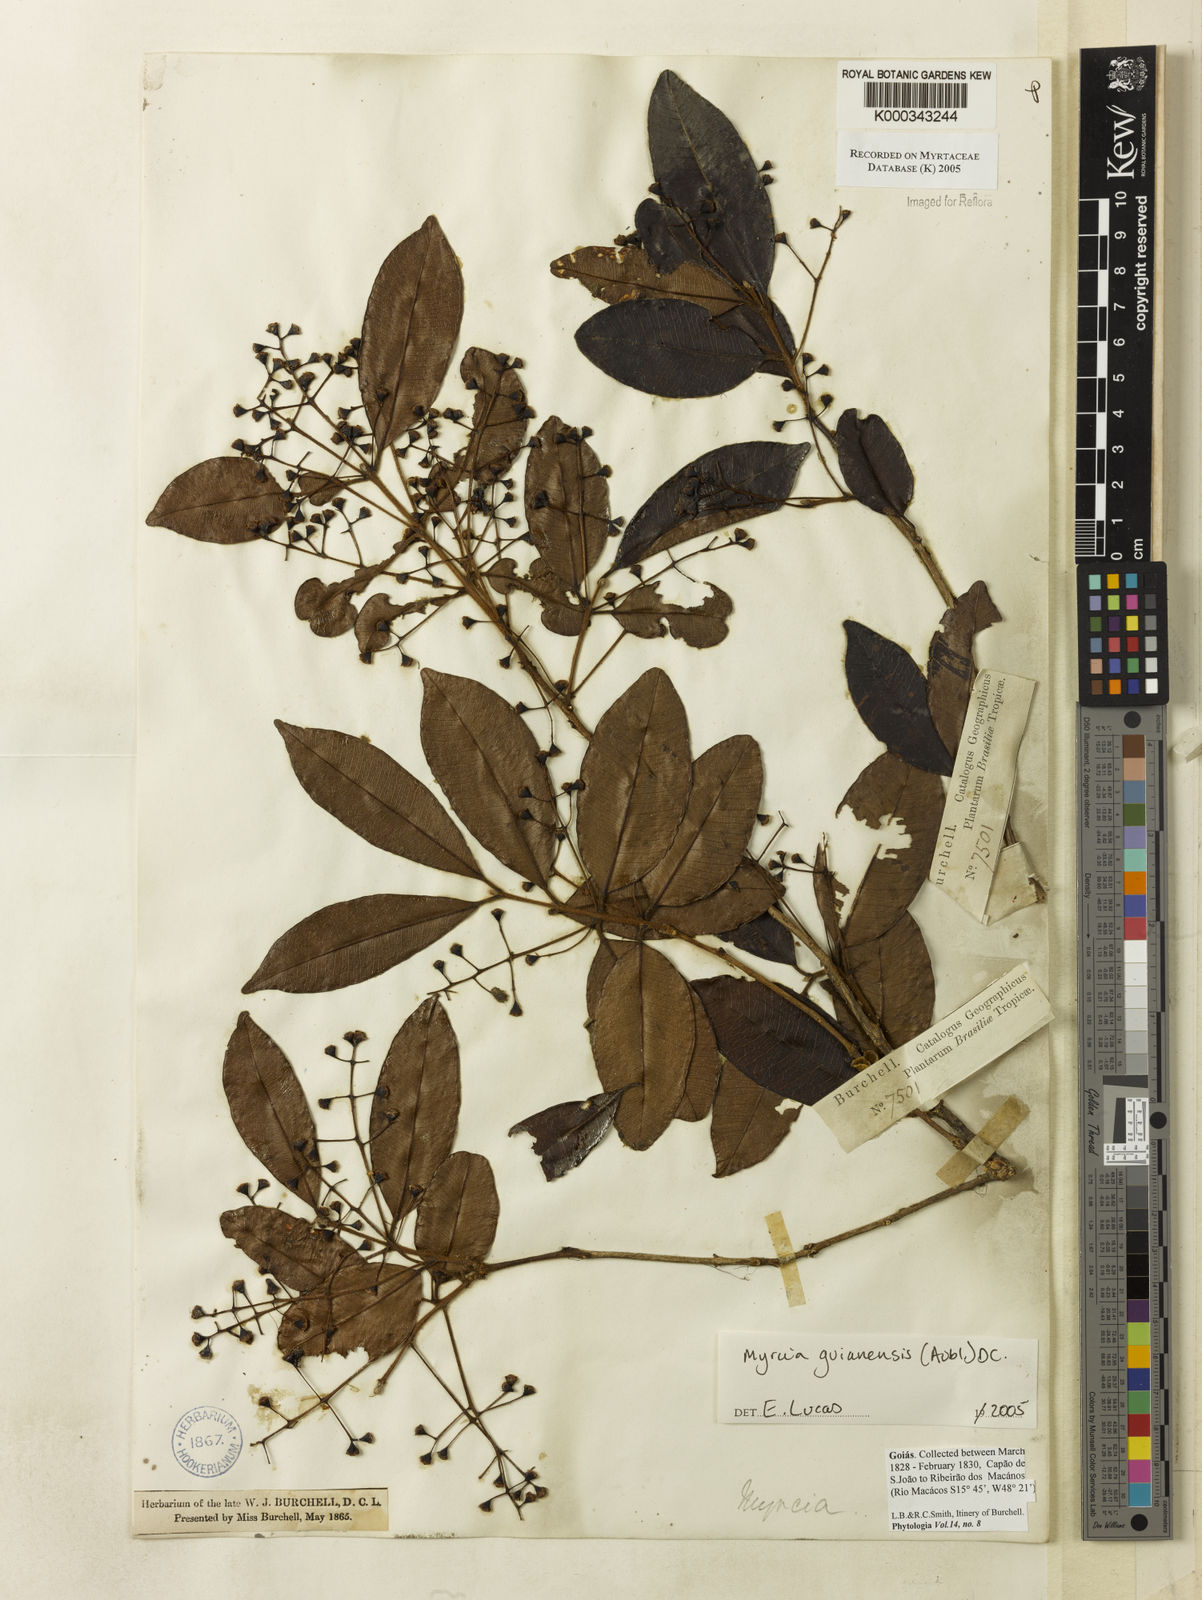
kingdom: Plantae
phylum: Tracheophyta
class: Magnoliopsida
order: Myrtales
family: Myrtaceae
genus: Myrcia
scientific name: Myrcia guianensis
